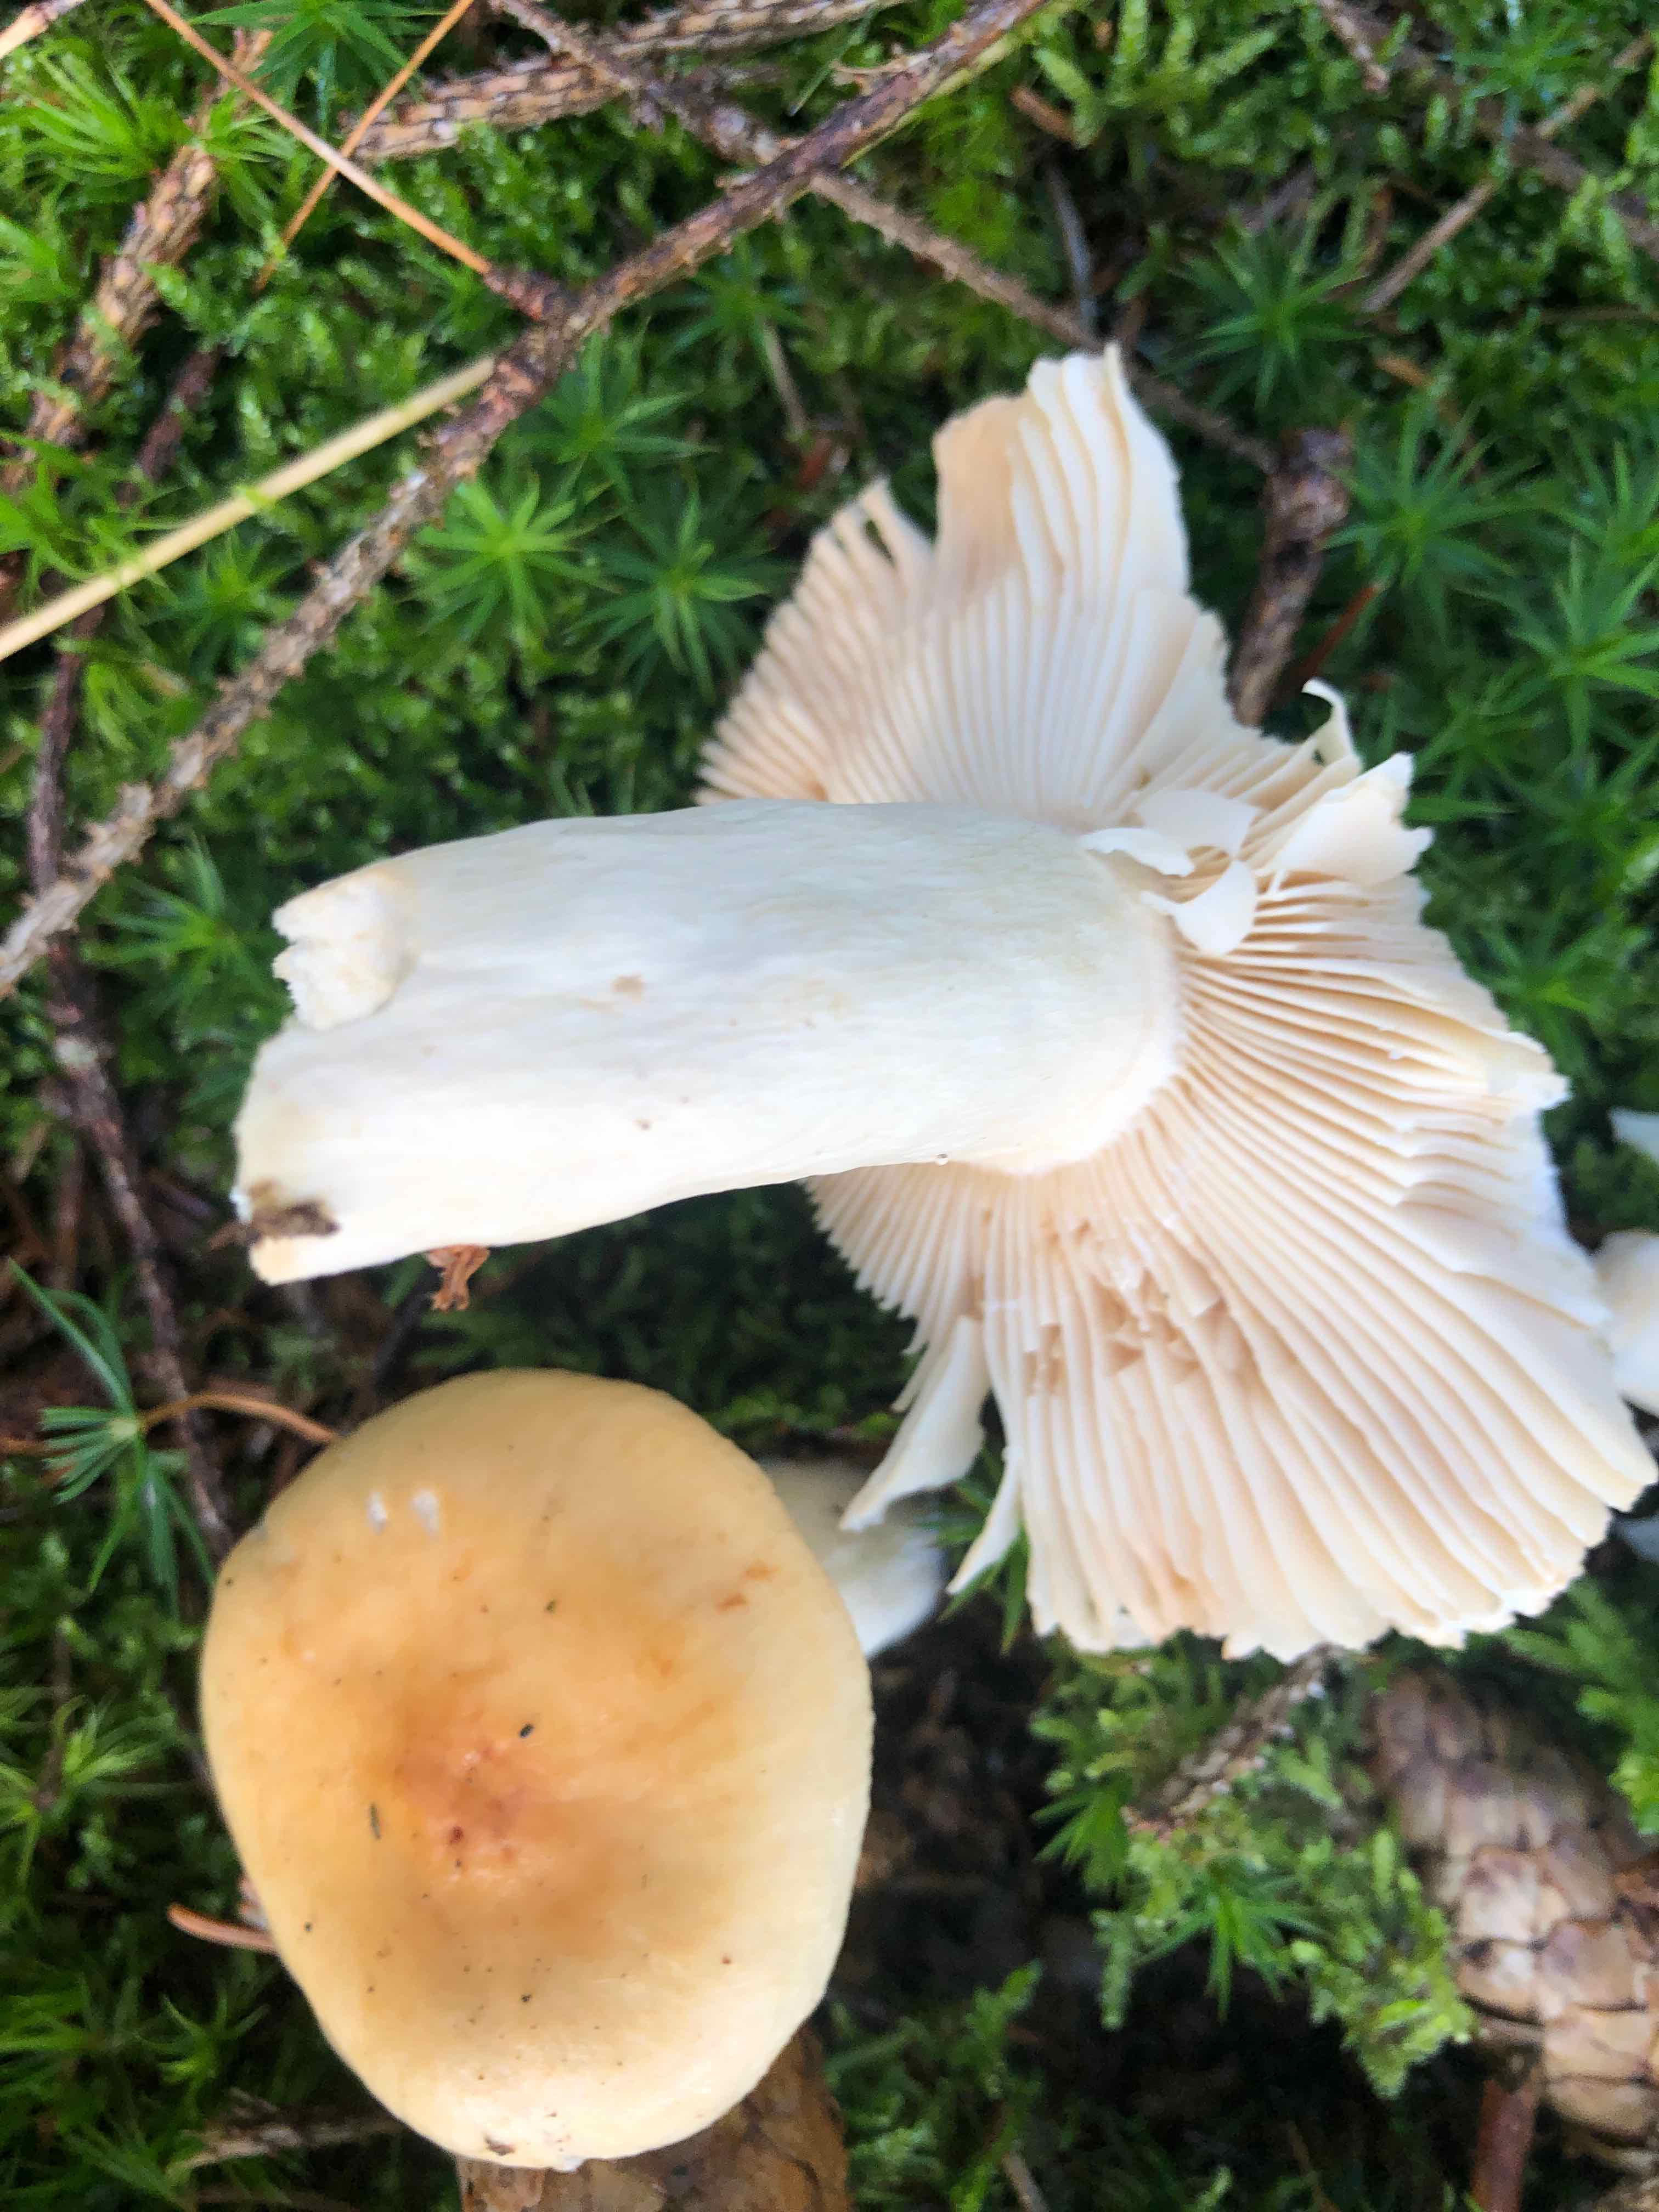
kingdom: Fungi
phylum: Basidiomycota
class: Agaricomycetes
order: Russulales
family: Russulaceae
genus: Russula
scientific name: Russula fellea
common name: galde-skørhat
